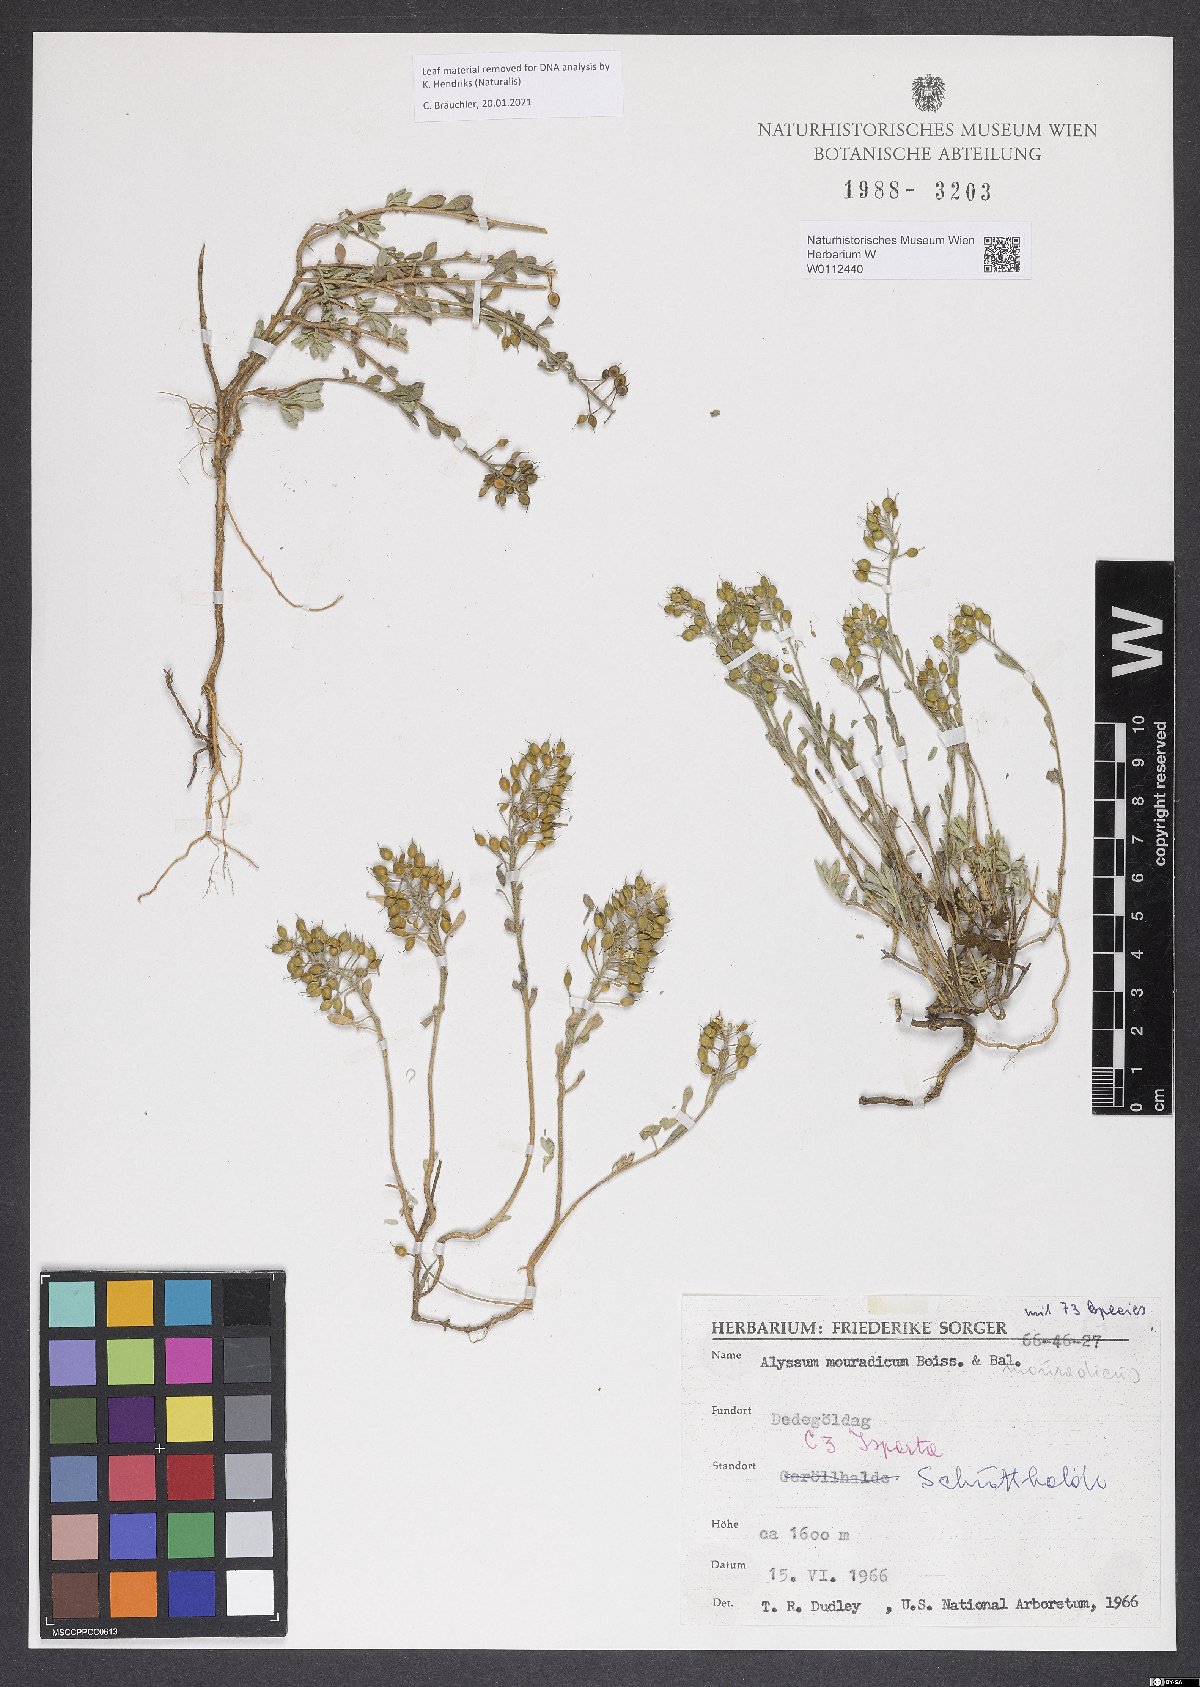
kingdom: Plantae
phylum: Tracheophyta
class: Magnoliopsida
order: Brassicales
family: Brassicaceae
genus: Alyssum
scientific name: Alyssum mouradicum
